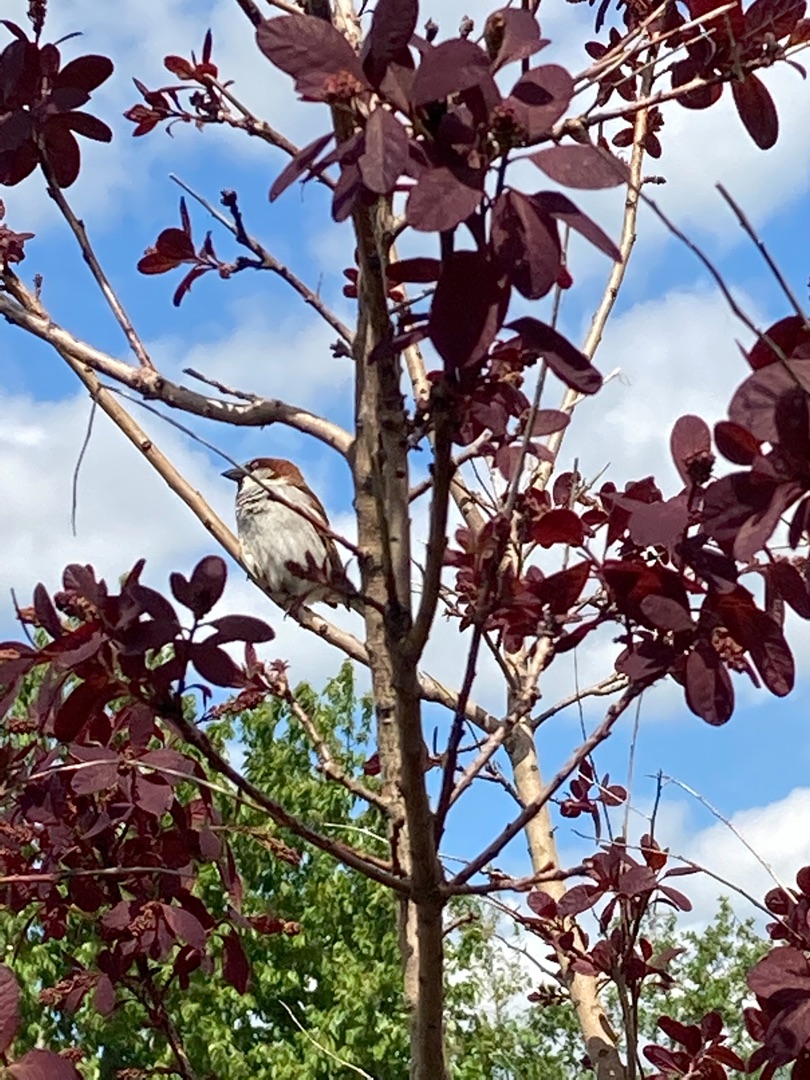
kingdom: Animalia
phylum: Chordata
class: Aves
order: Passeriformes
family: Passeridae
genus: Passer
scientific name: Passer domesticus
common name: Gråspurv
